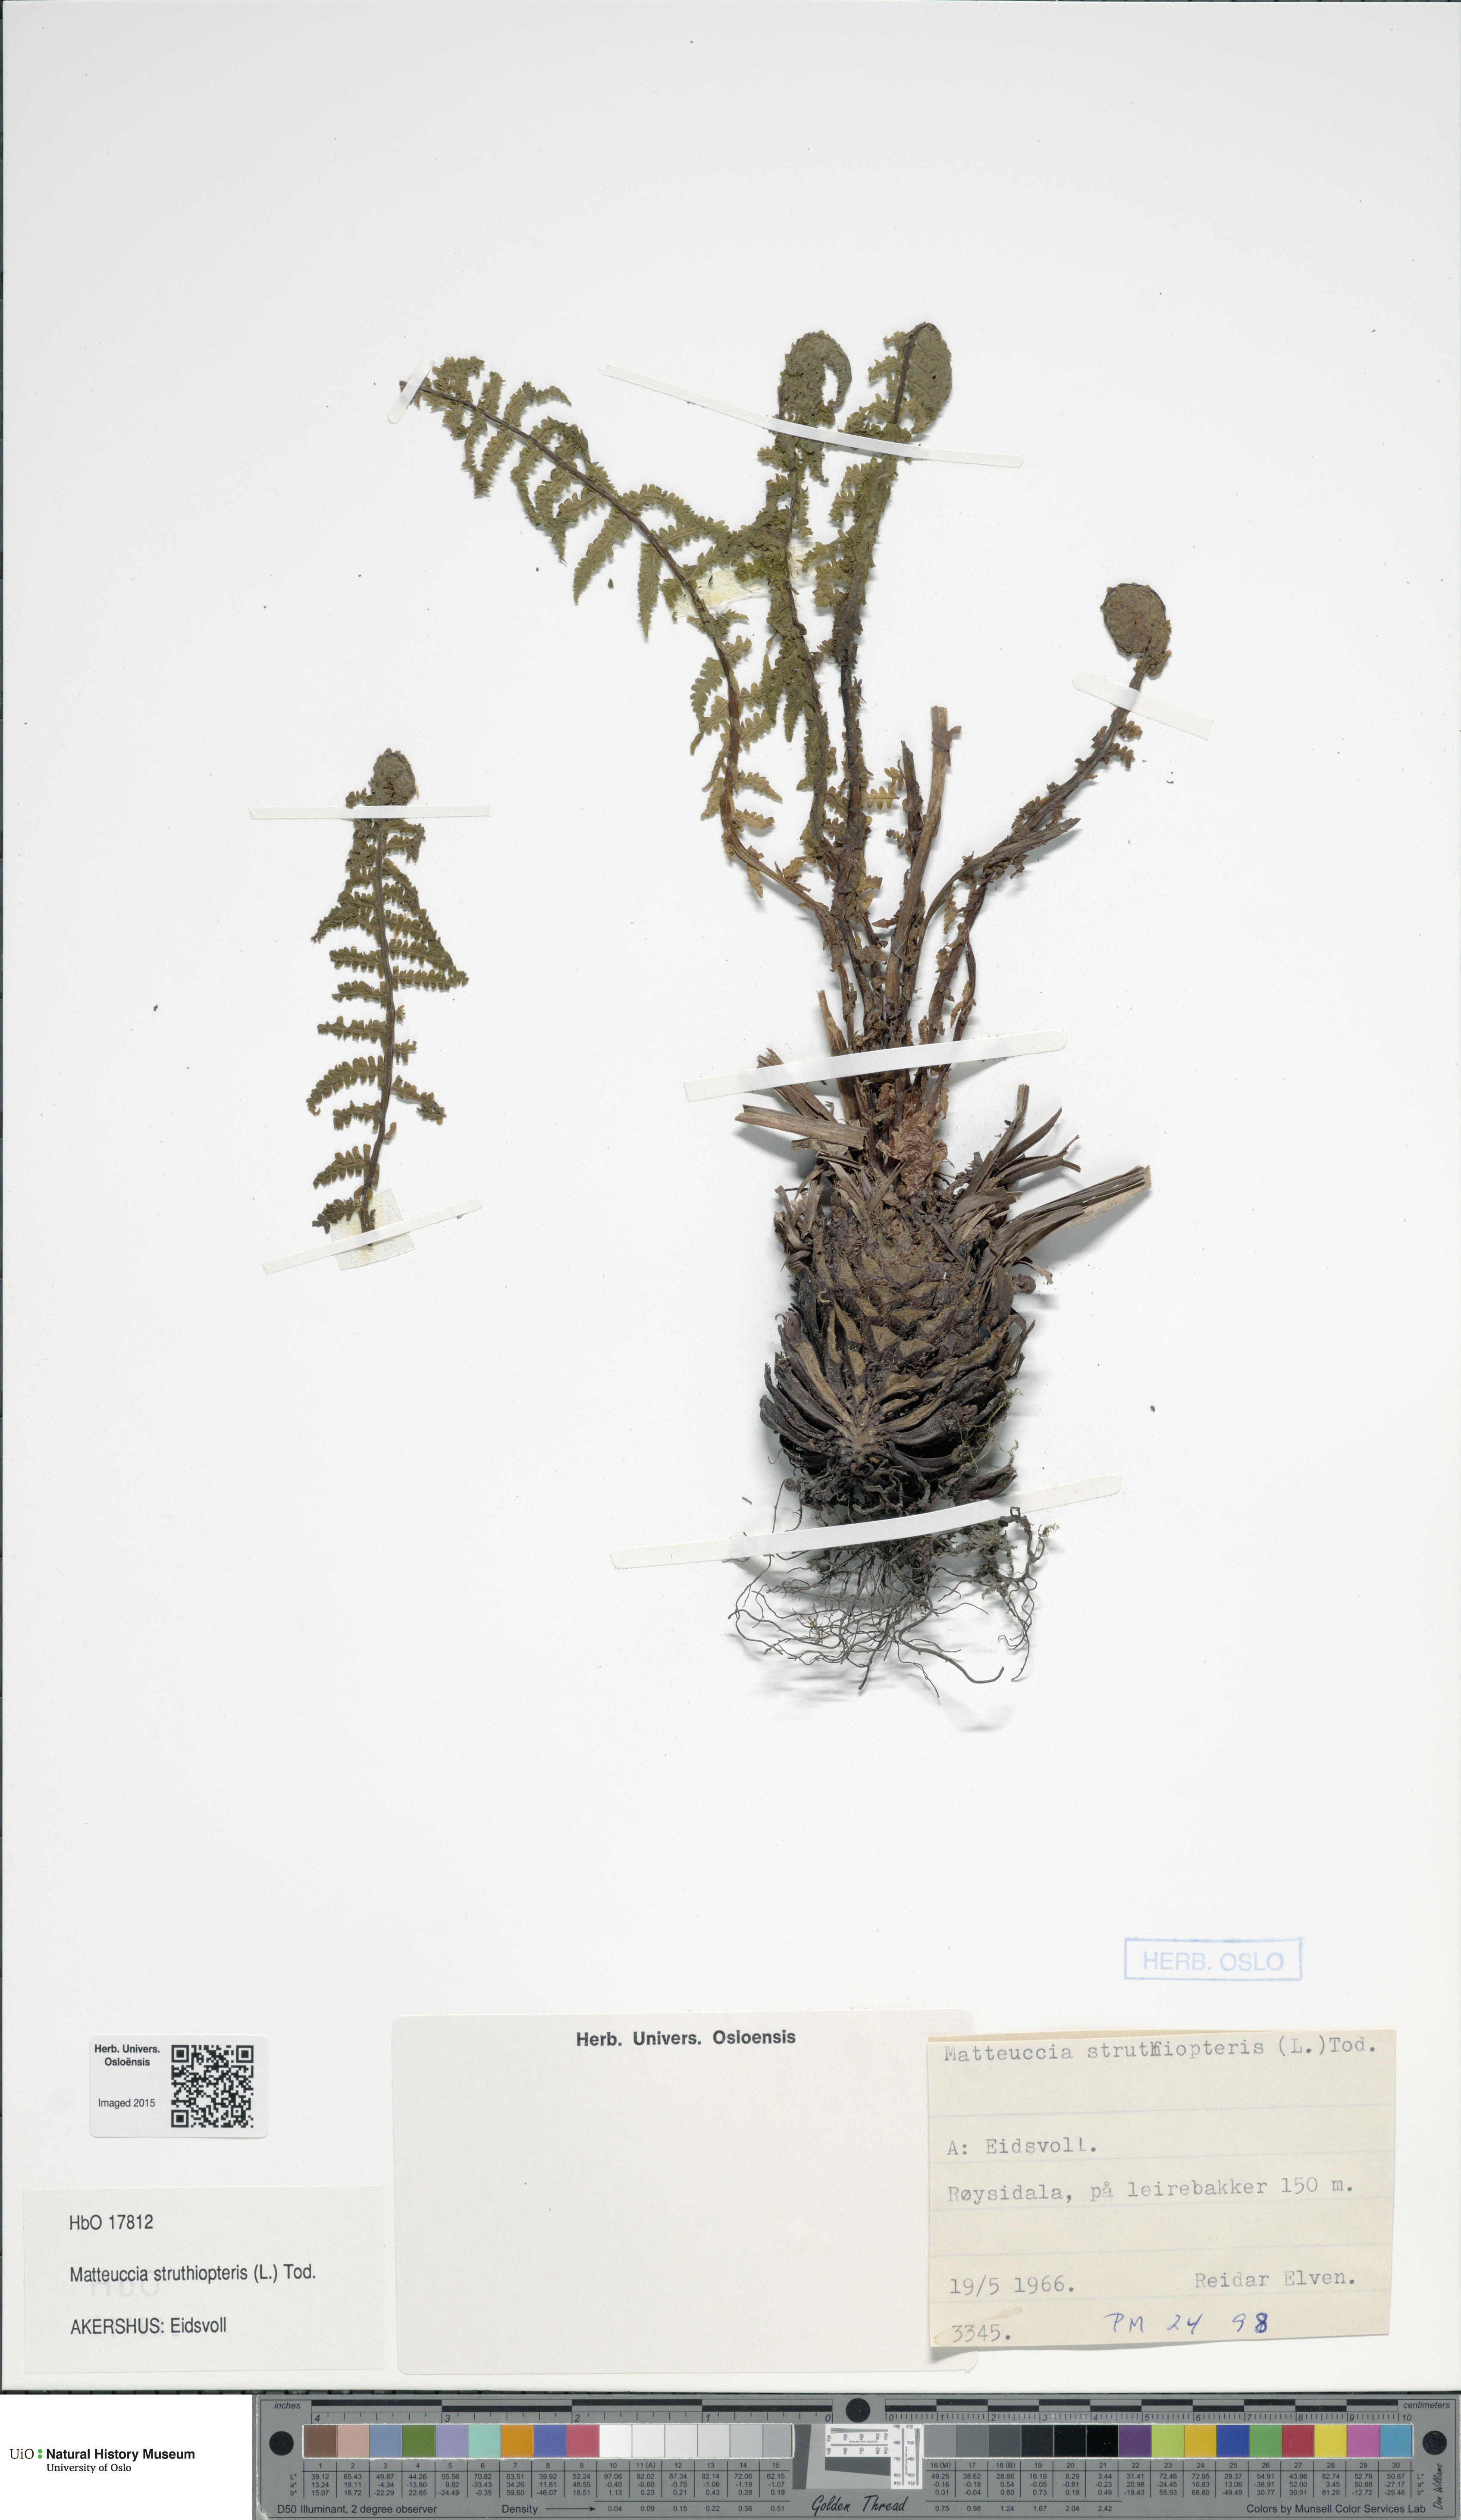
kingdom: Plantae
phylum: Tracheophyta
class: Polypodiopsida
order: Polypodiales
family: Onocleaceae
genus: Matteuccia
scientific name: Matteuccia struthiopteris
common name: Ostrich fern
